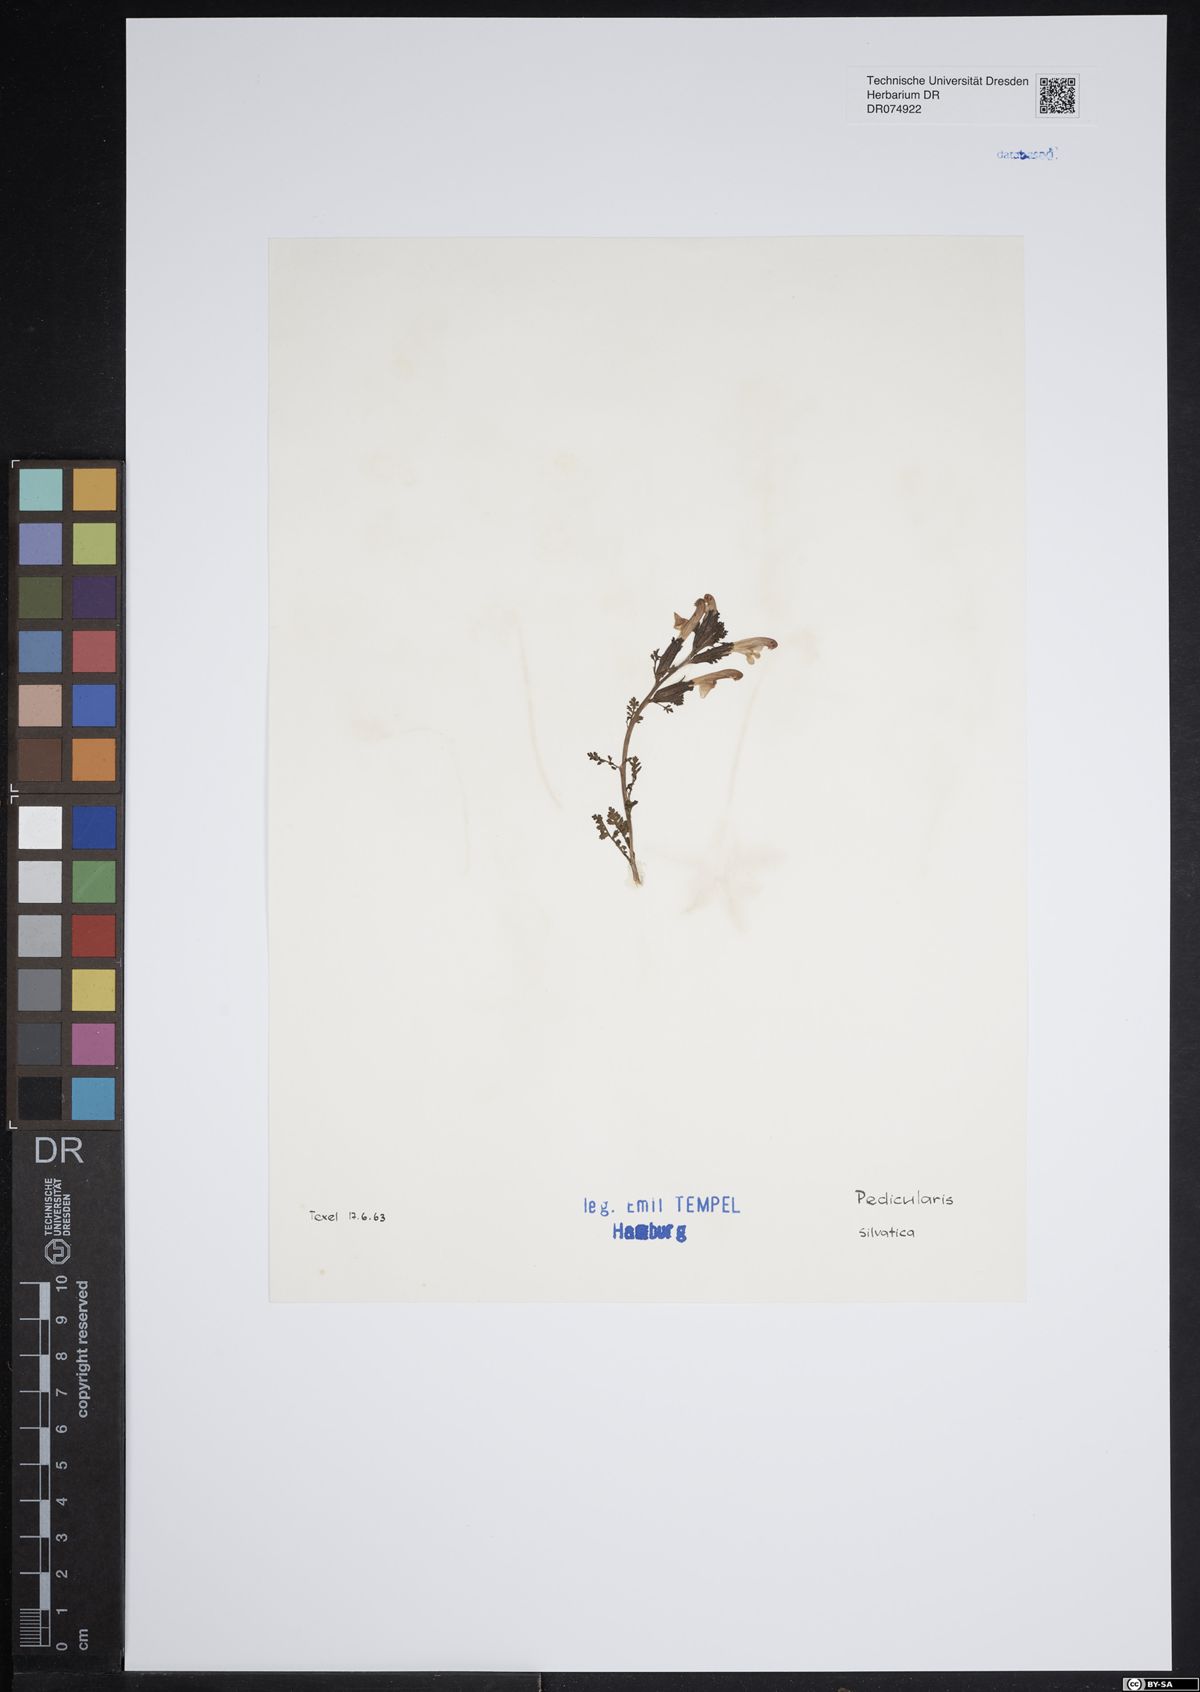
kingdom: Plantae
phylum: Tracheophyta
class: Magnoliopsida
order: Lamiales
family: Orobanchaceae
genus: Pedicularis
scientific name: Pedicularis sylvatica
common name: Lousewort
